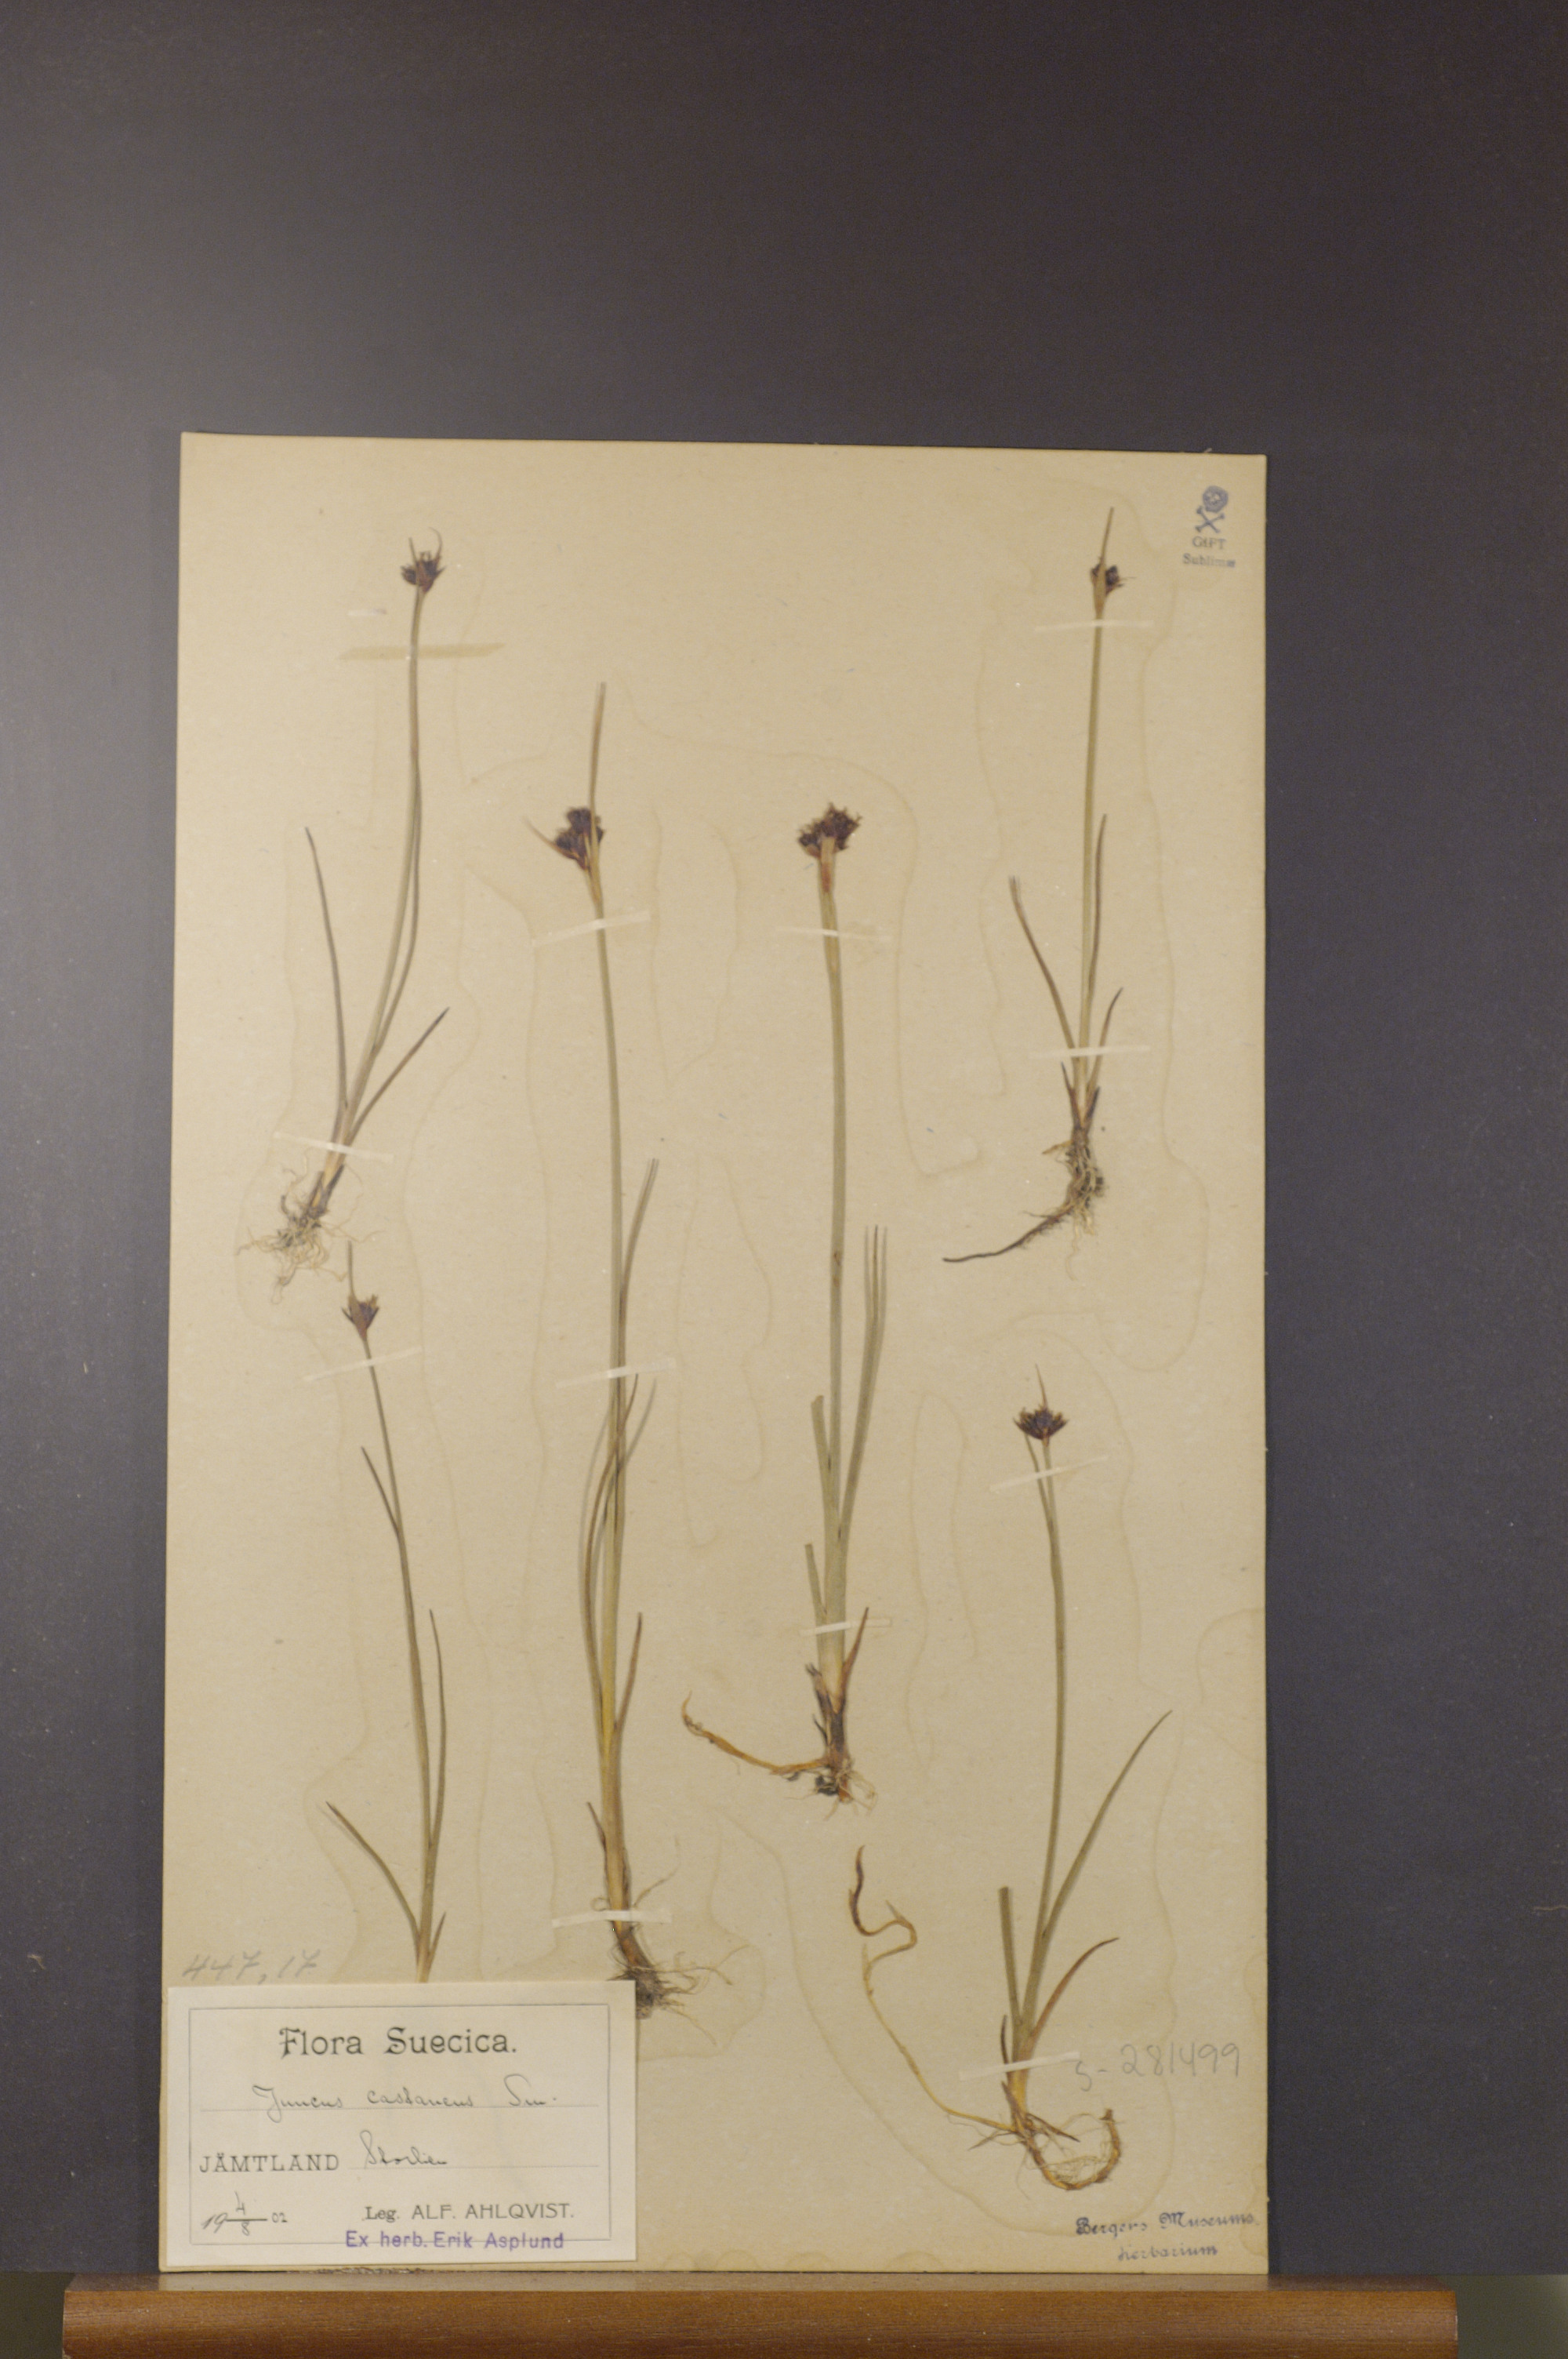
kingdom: Plantae
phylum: Tracheophyta
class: Liliopsida
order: Poales
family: Juncaceae
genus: Juncus
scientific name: Juncus castaneus
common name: Chestnut rush
